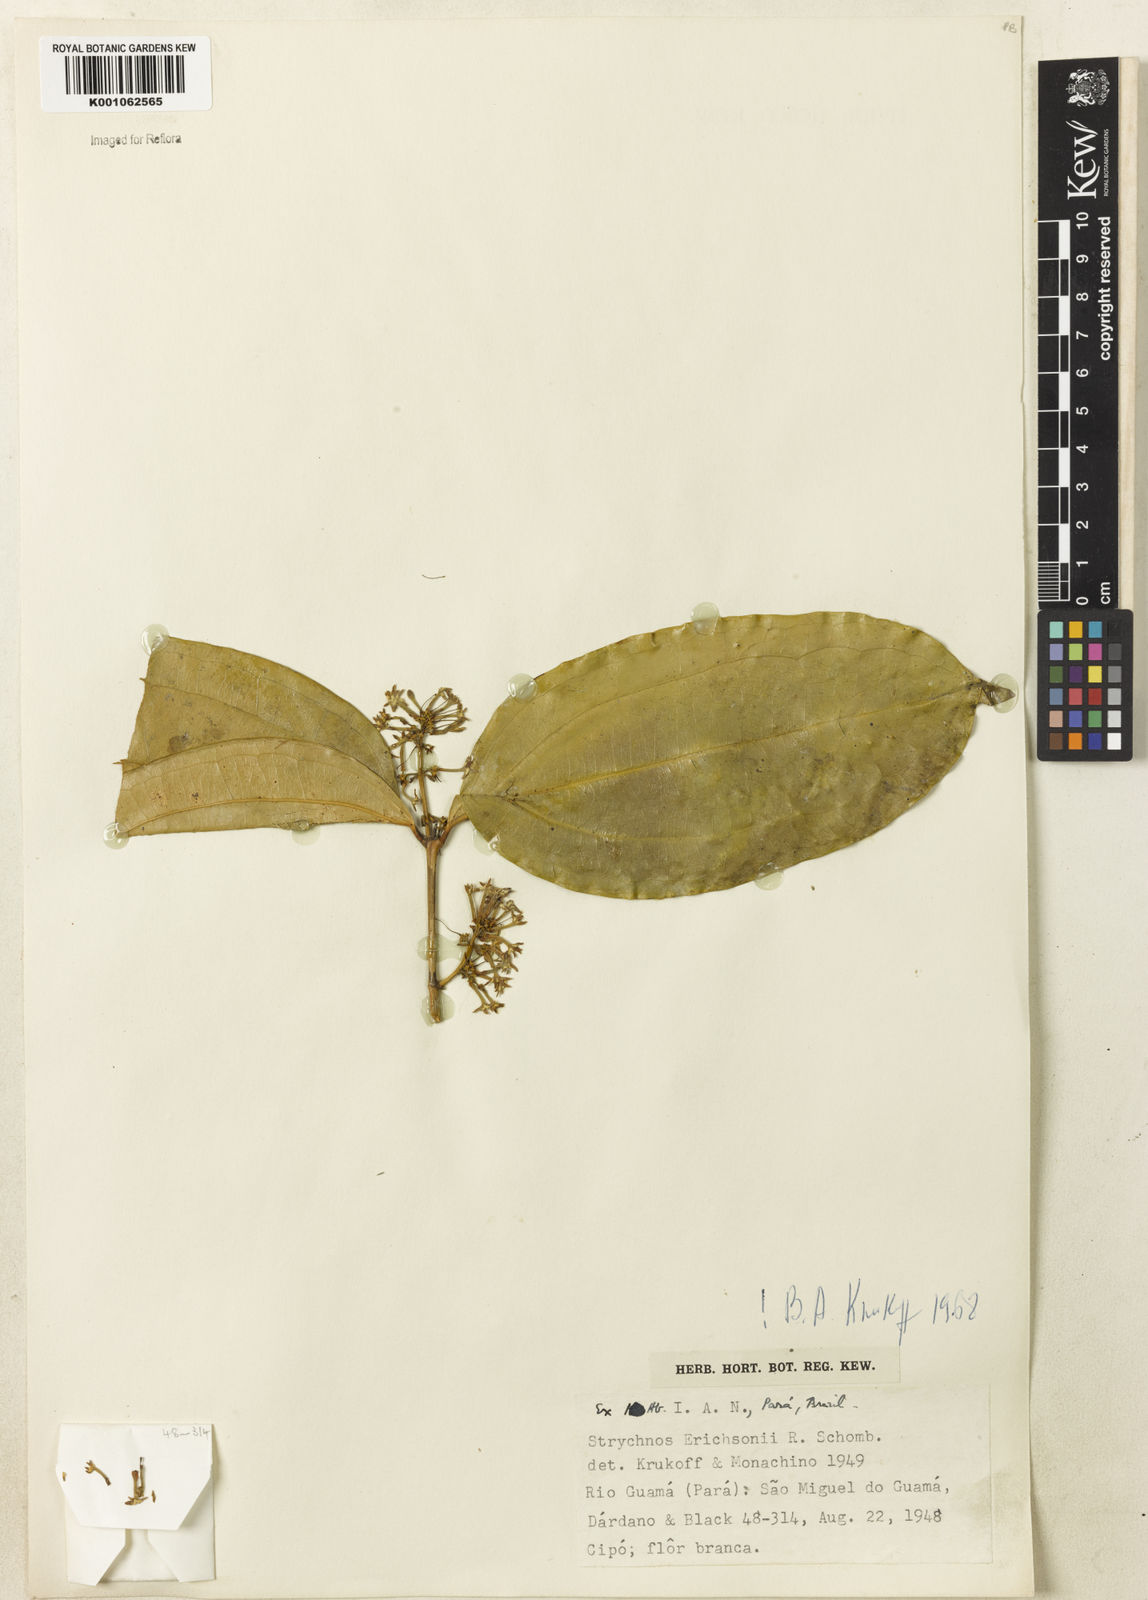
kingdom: Plantae
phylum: Tracheophyta
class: Magnoliopsida
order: Gentianales
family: Loganiaceae
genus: Strychnos
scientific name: Strychnos erichsonii
